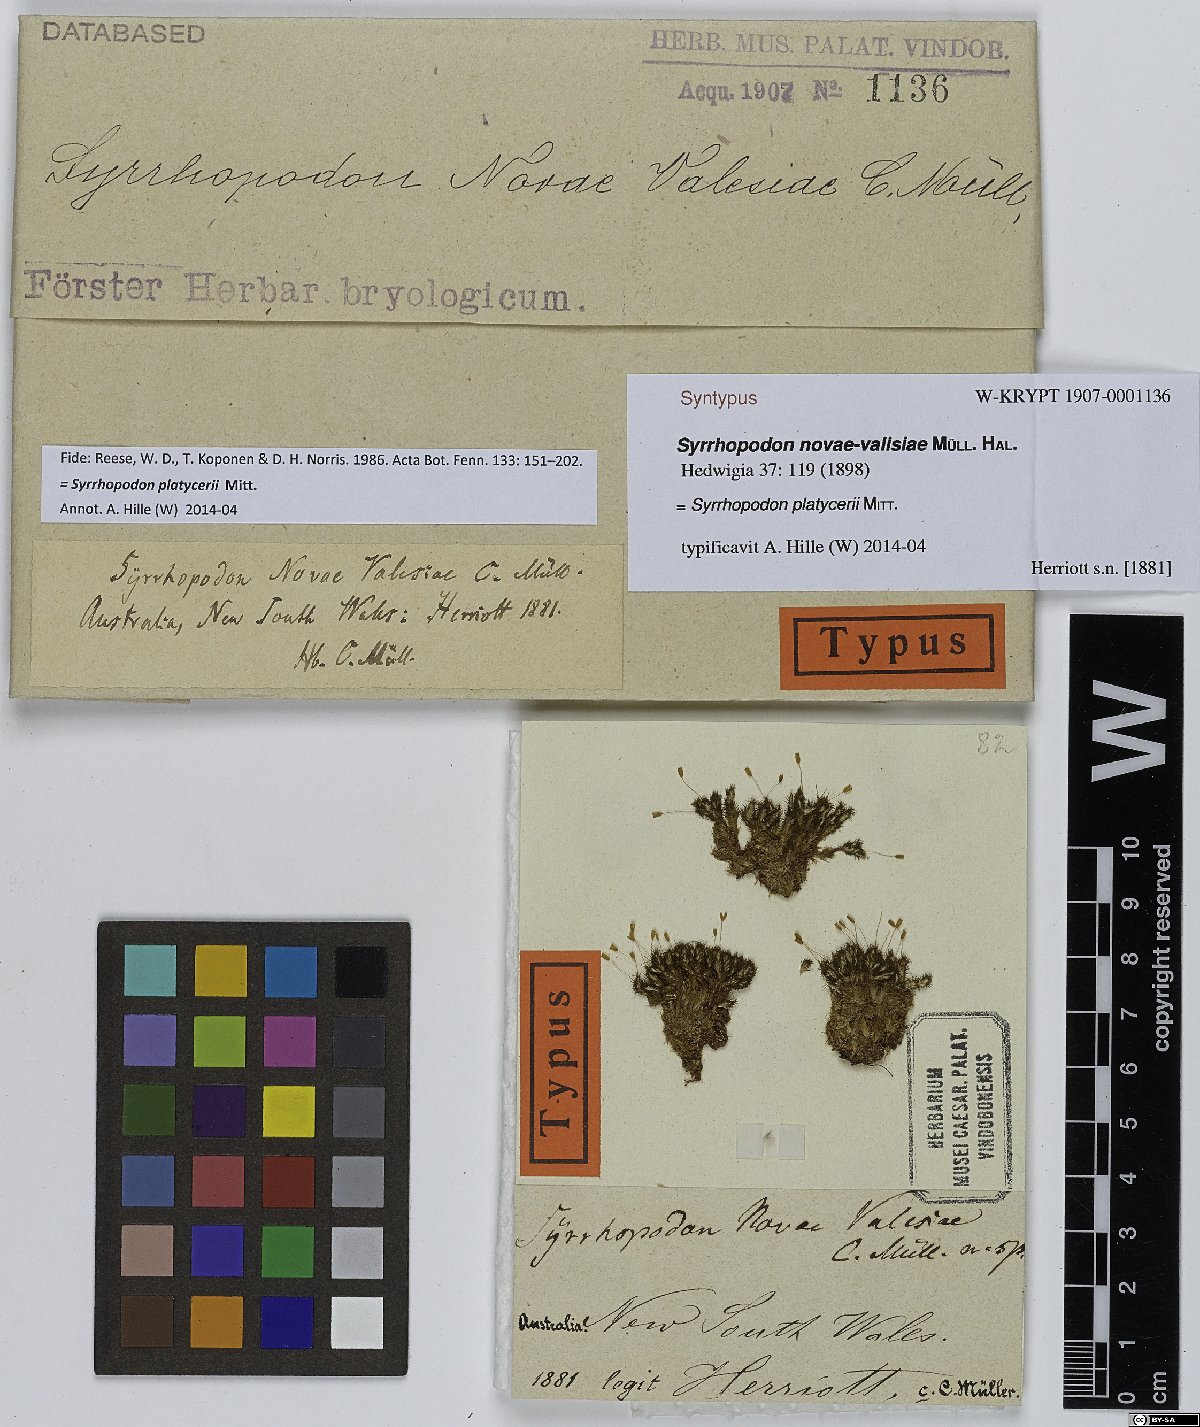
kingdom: Plantae
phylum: Bryophyta
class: Bryopsida
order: Dicranales
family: Calymperaceae
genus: Syrrhopodon
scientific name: Syrrhopodon platycerii
